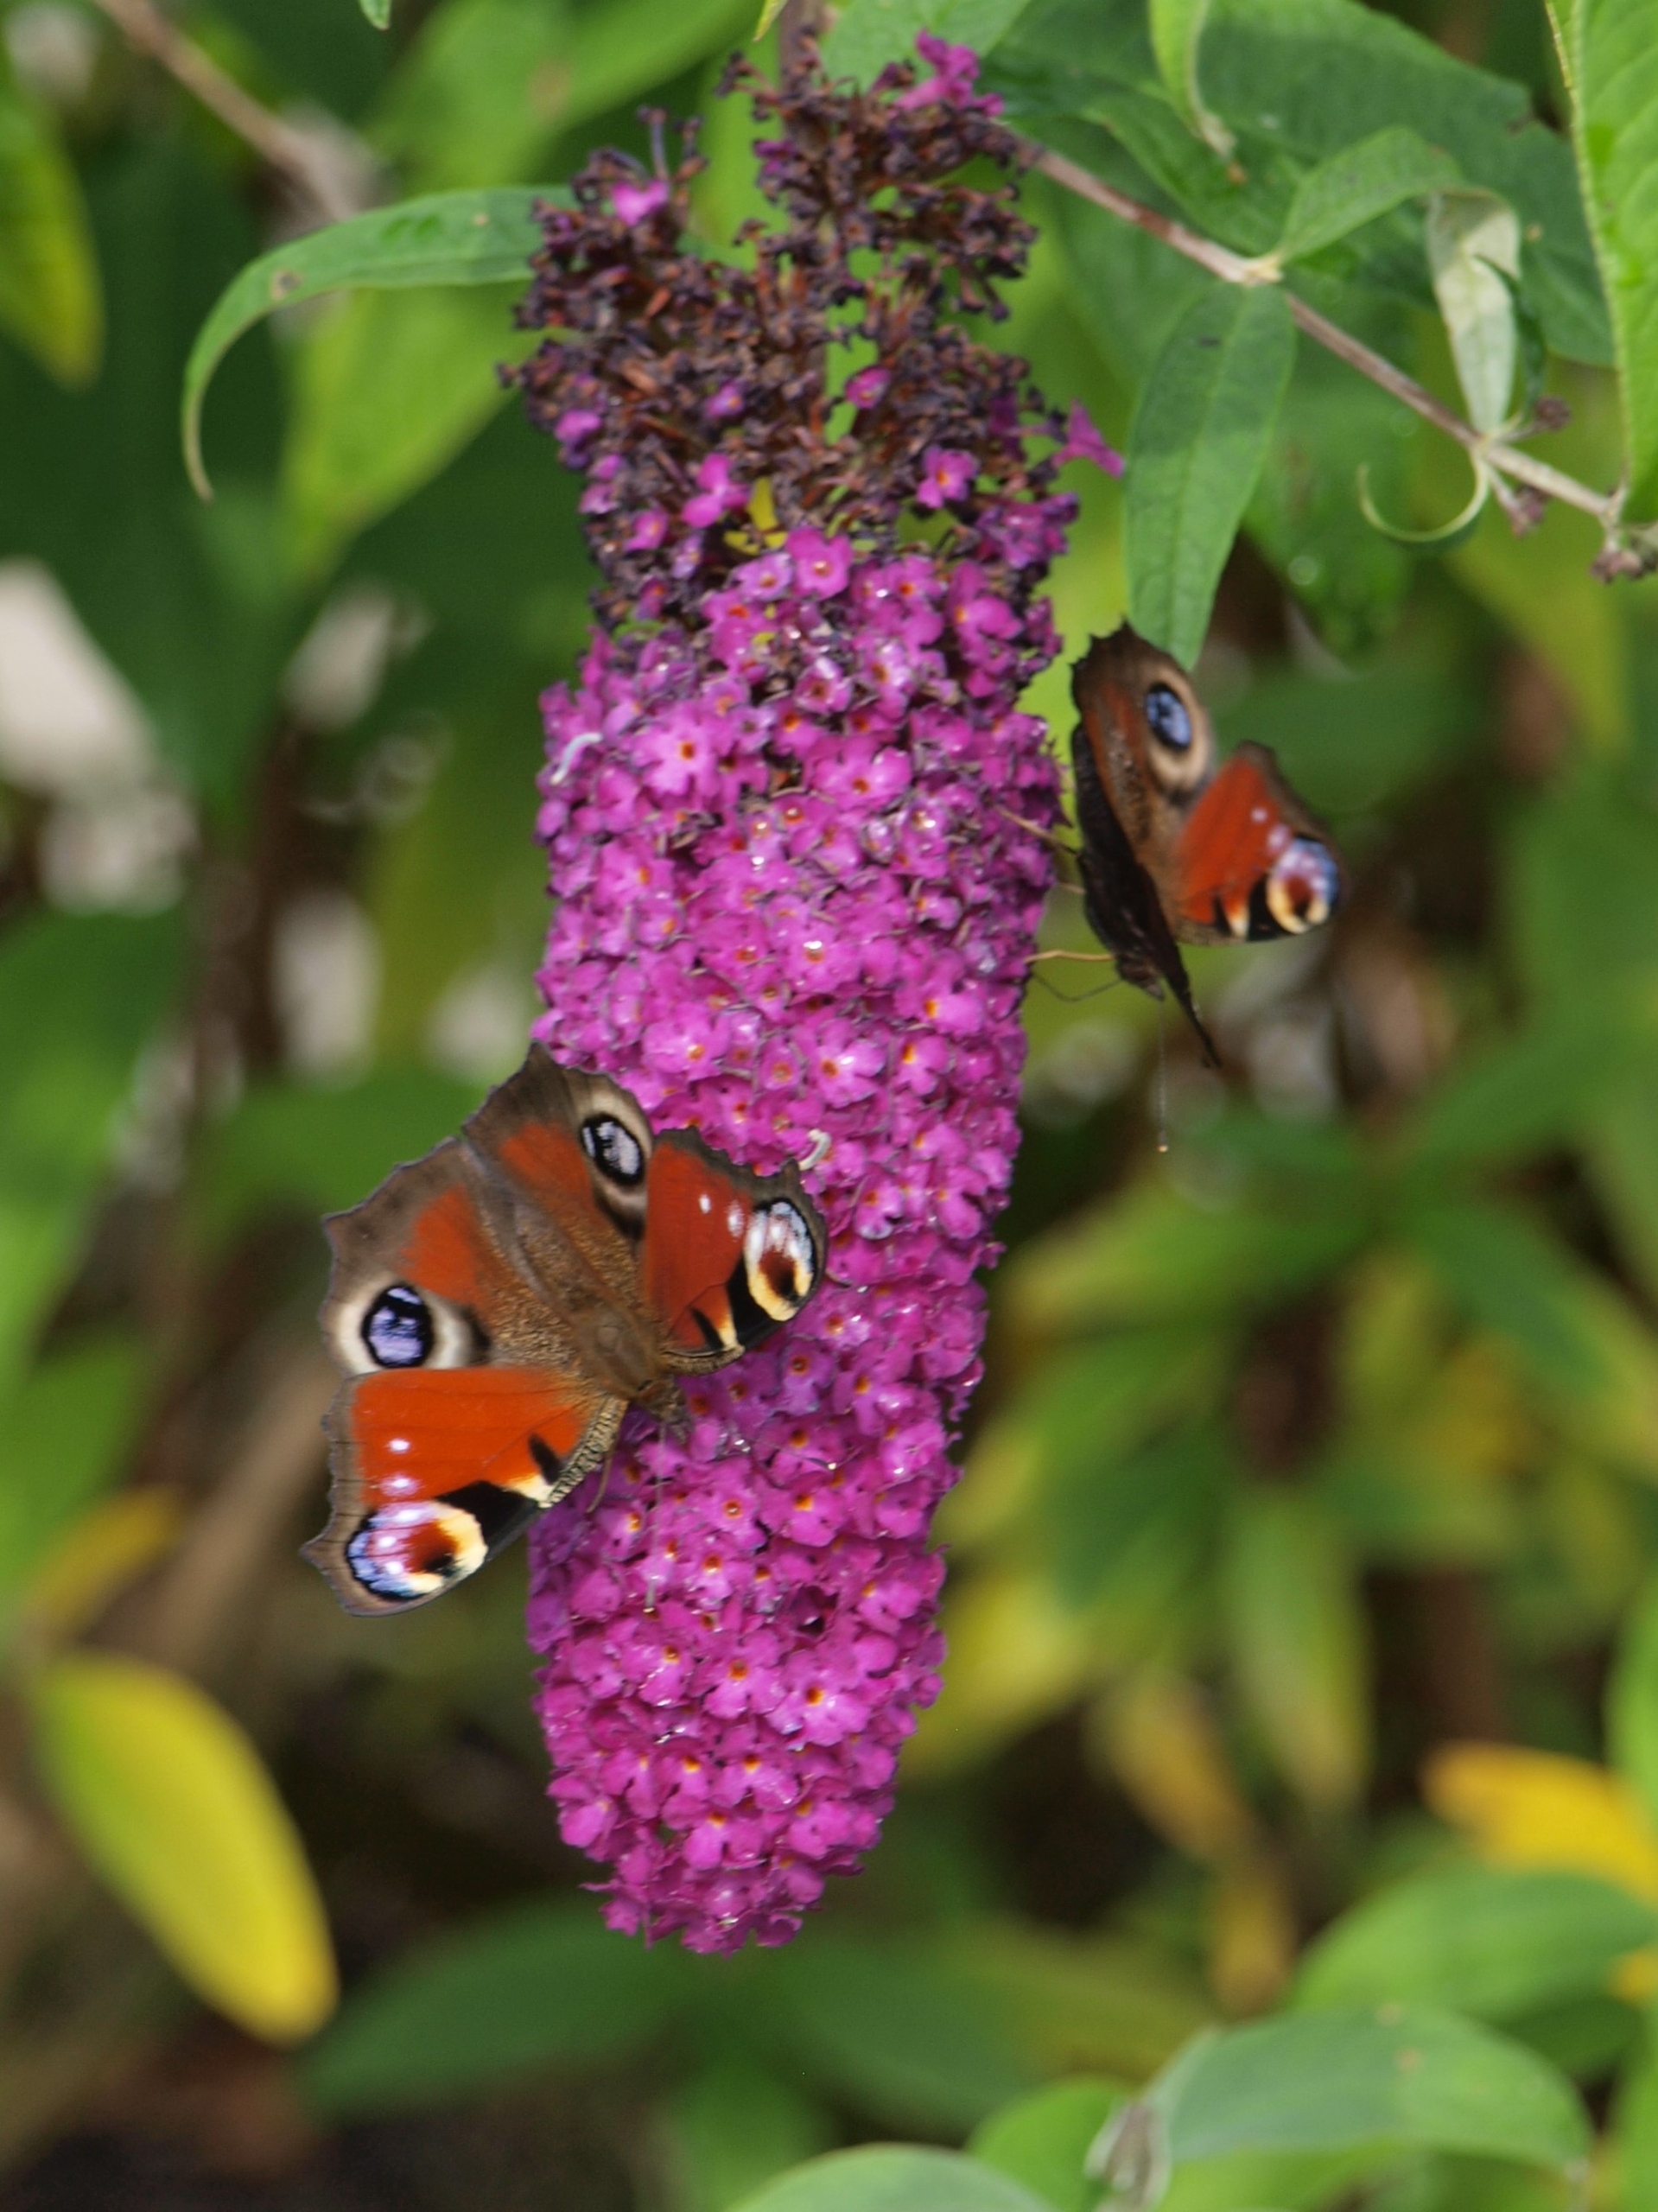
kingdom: Animalia
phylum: Arthropoda
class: Insecta
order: Lepidoptera
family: Nymphalidae
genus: Aglais
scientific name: Aglais io
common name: Dagpåfugleøje
